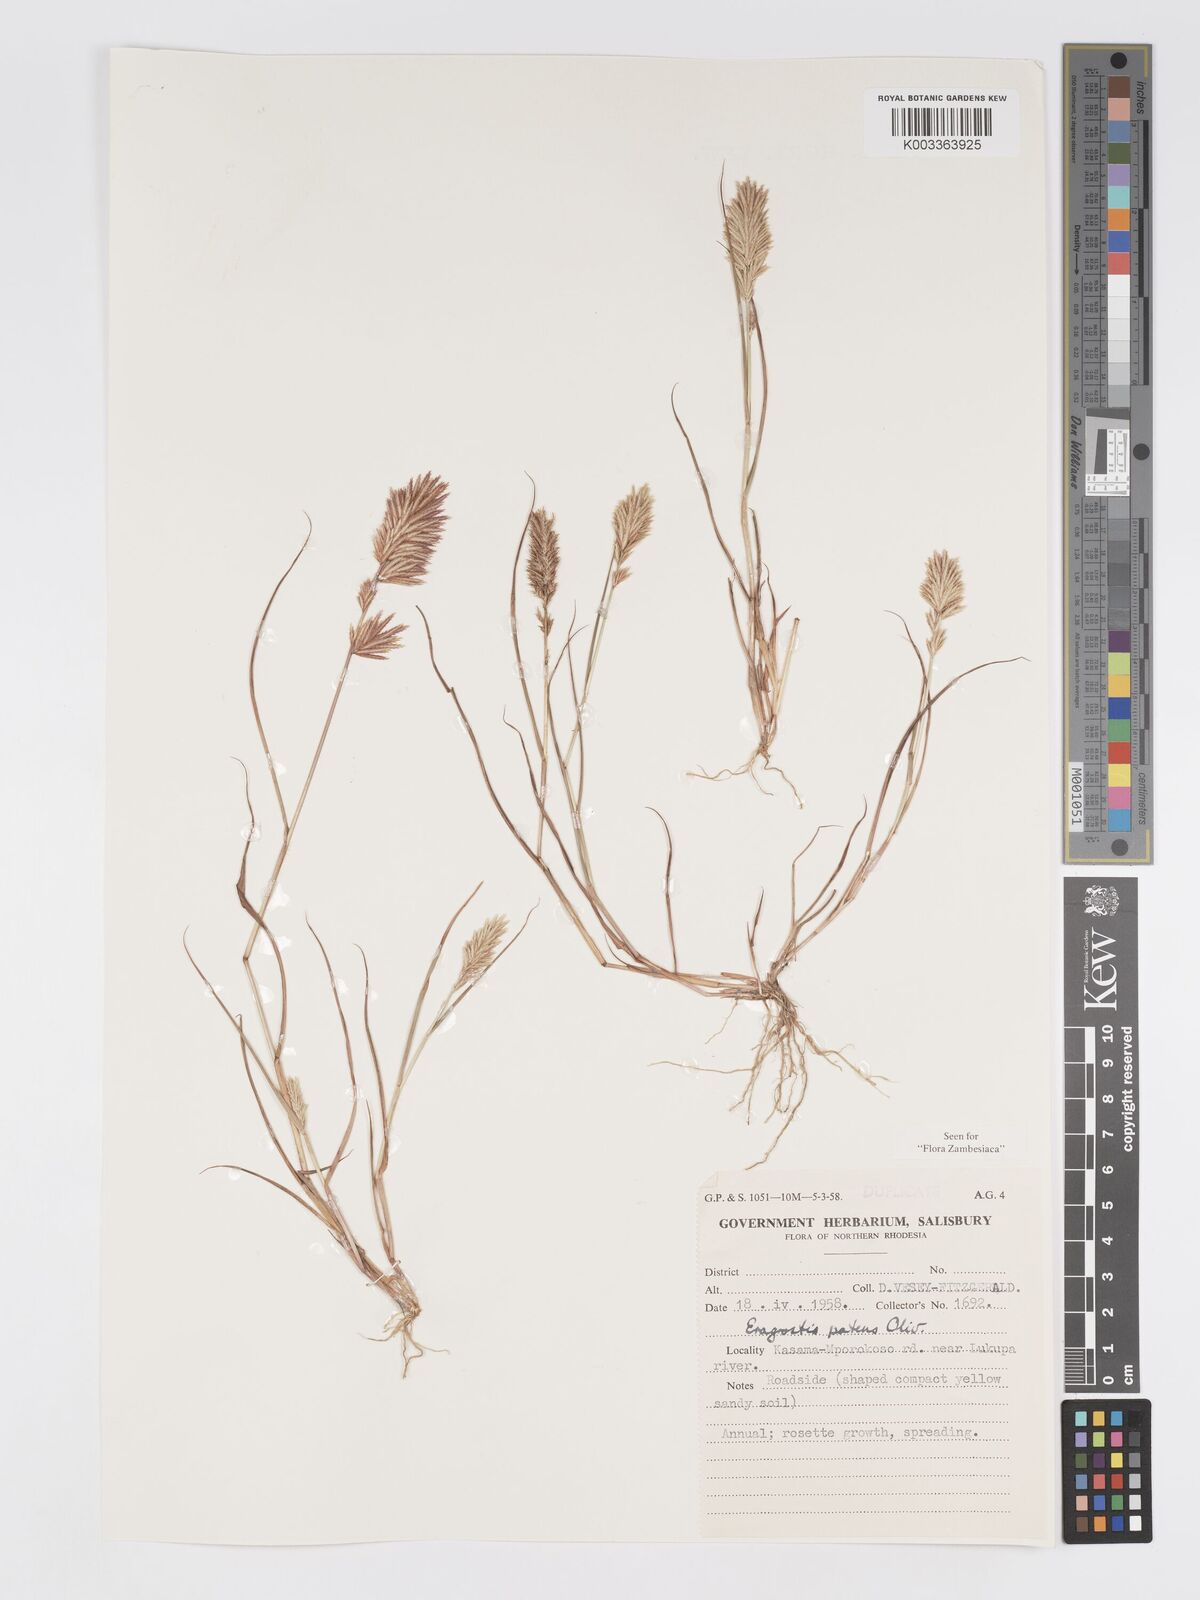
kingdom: Plantae
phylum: Tracheophyta
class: Liliopsida
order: Poales
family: Poaceae
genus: Eragrostis
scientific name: Eragrostis patens
